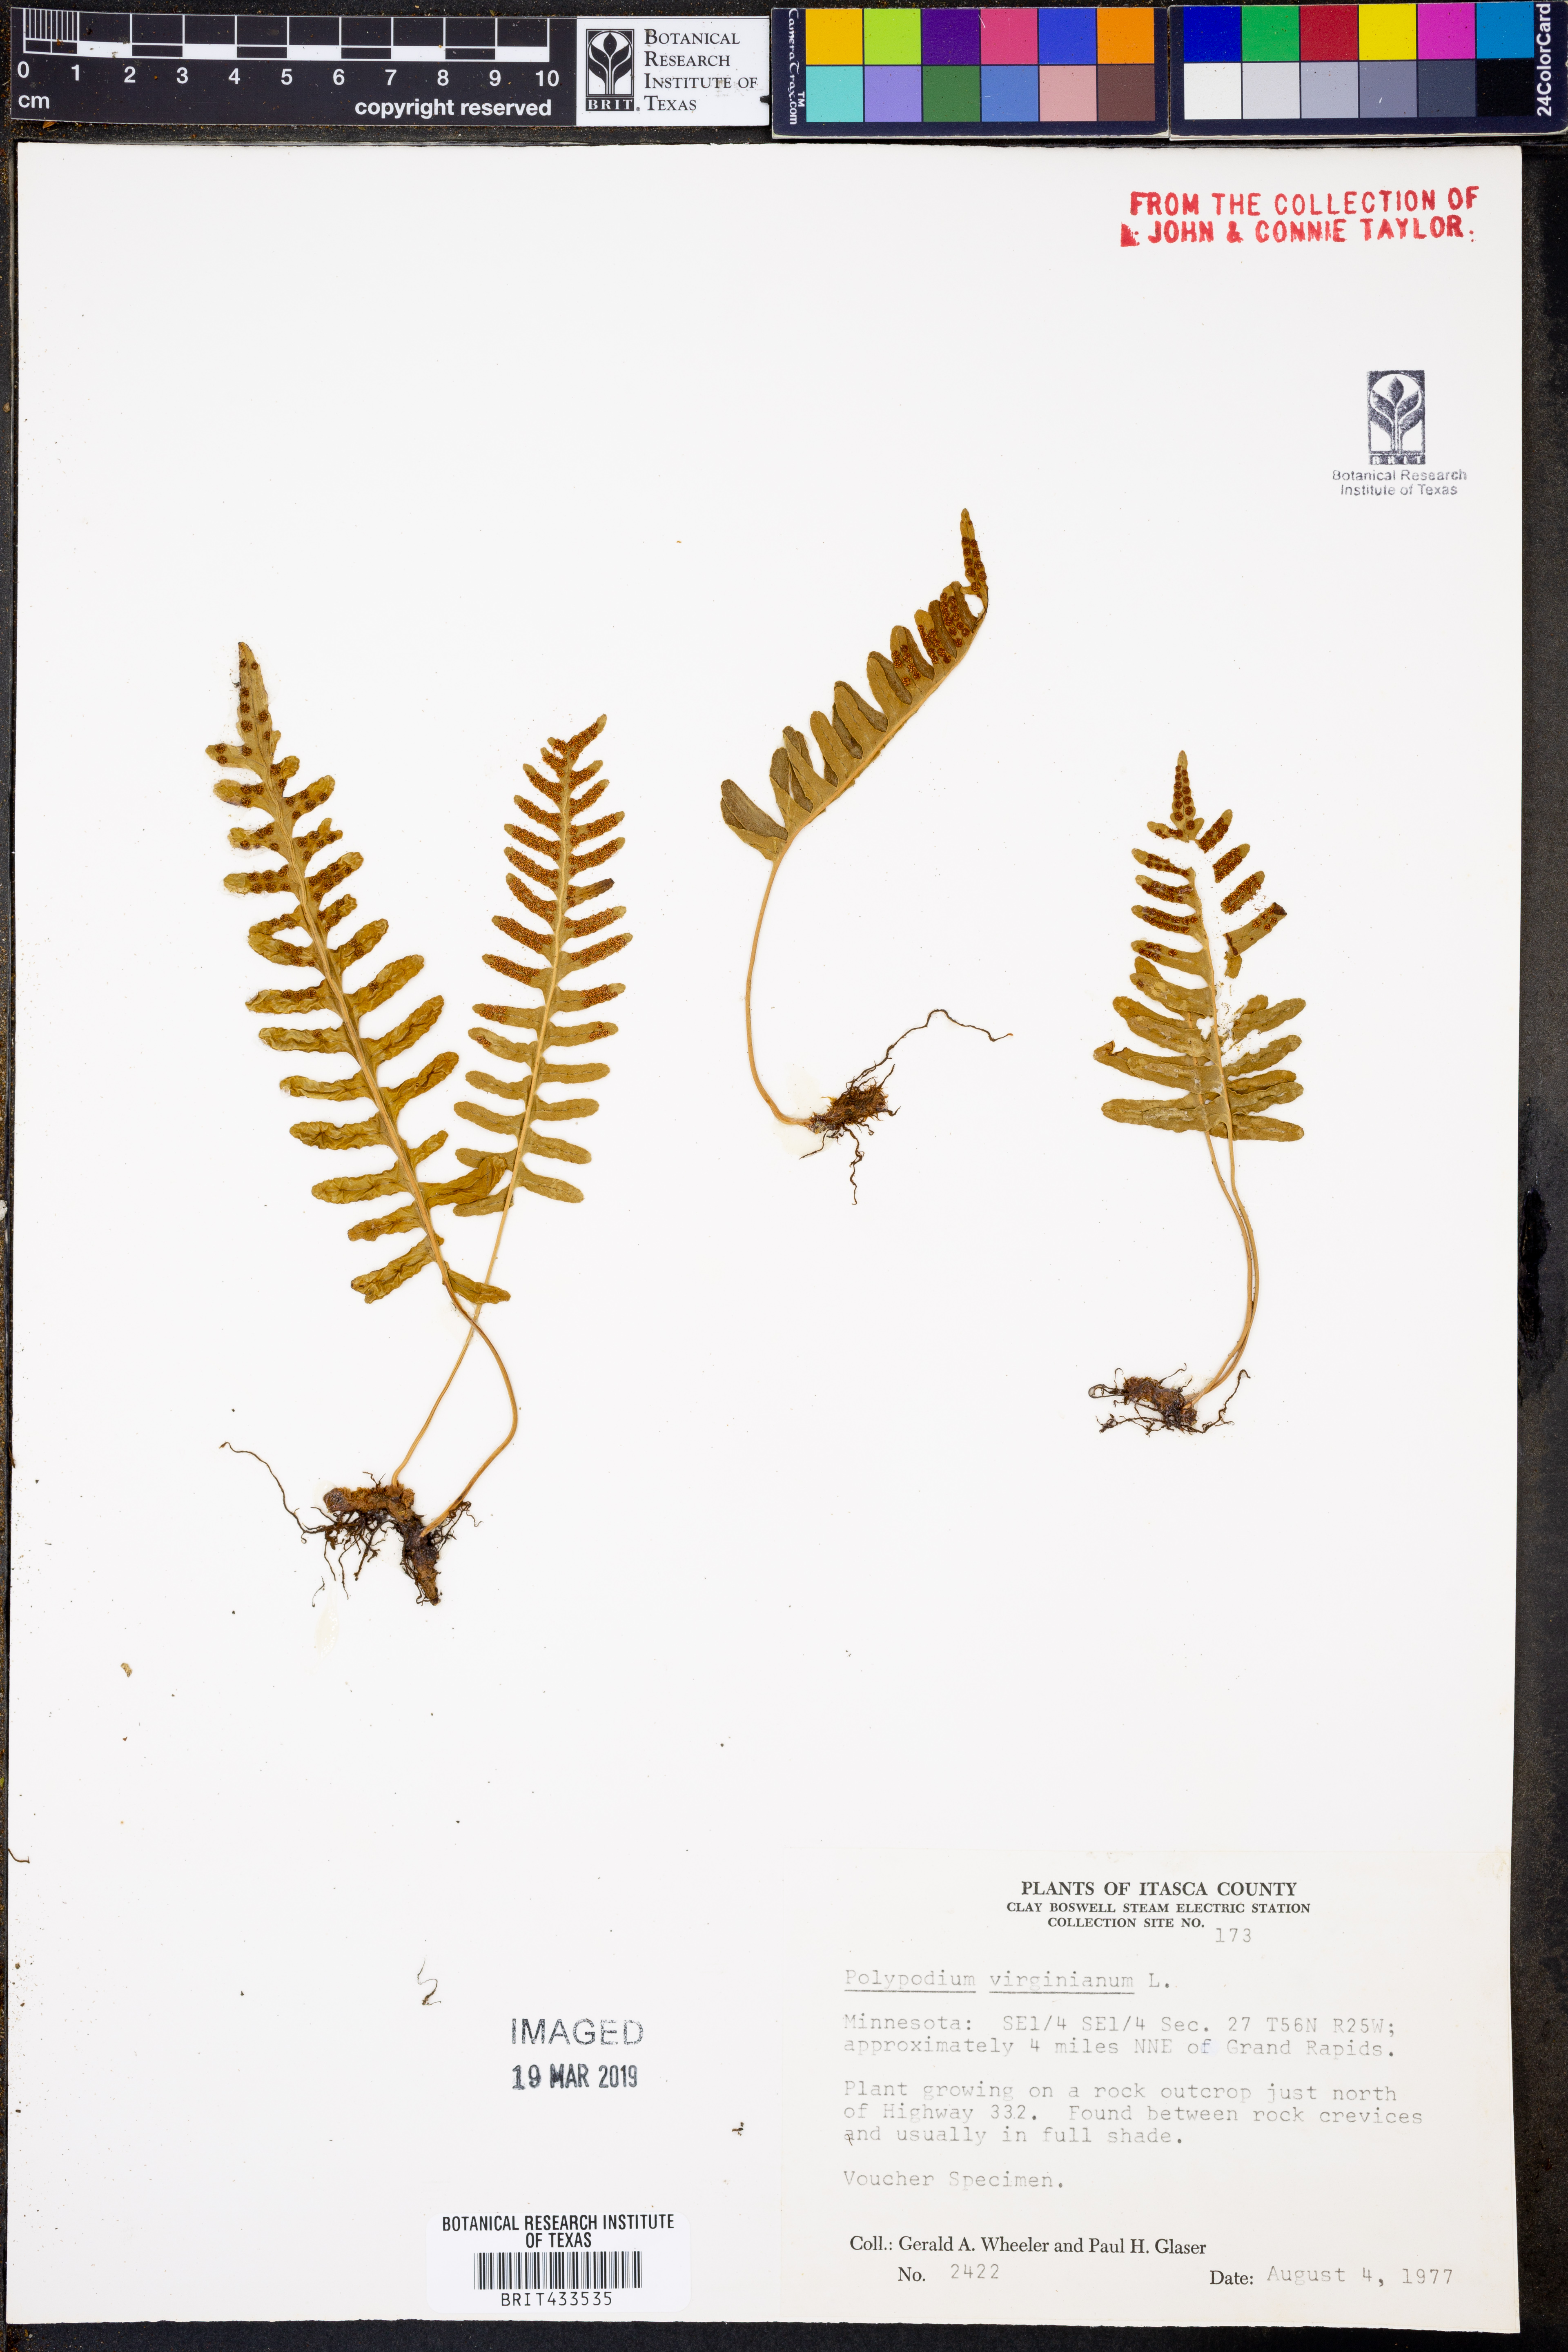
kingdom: Plantae
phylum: Tracheophyta
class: Polypodiopsida
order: Polypodiales
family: Polypodiaceae
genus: Polypodium
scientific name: Polypodium virginianum
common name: American wall fern
